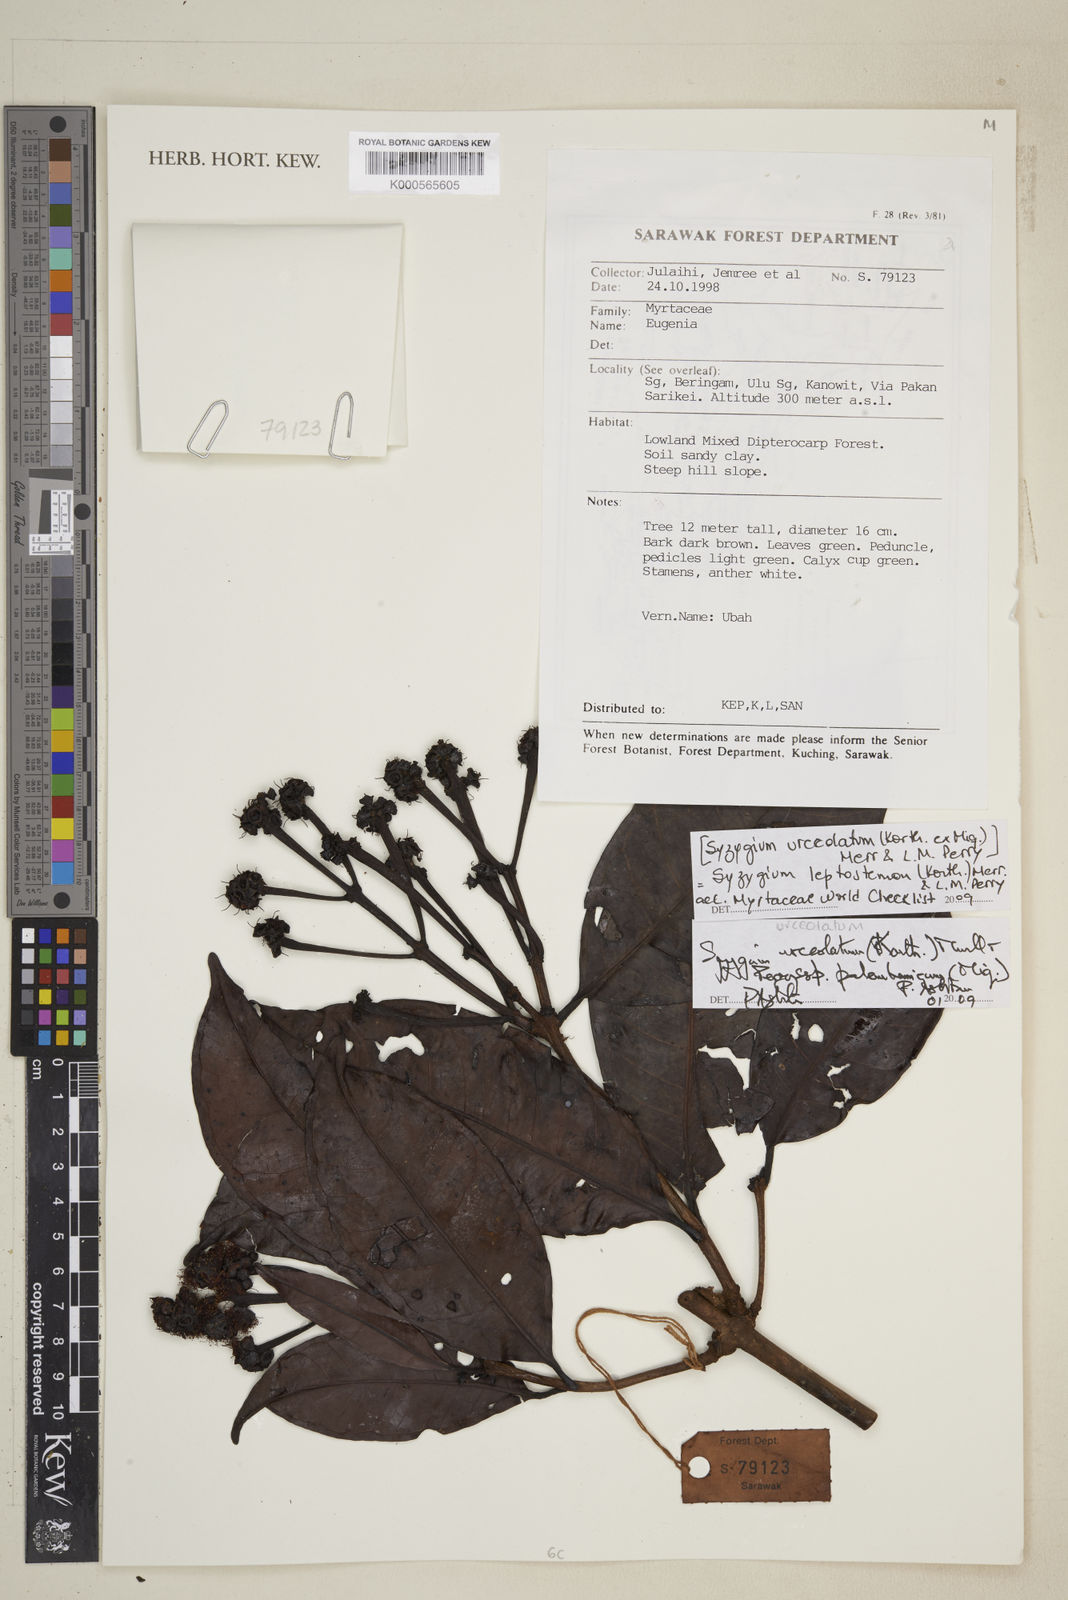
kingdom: Plantae
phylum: Tracheophyta
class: Magnoliopsida
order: Myrtales
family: Myrtaceae
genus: Syzygium
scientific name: Syzygium urceolatum
